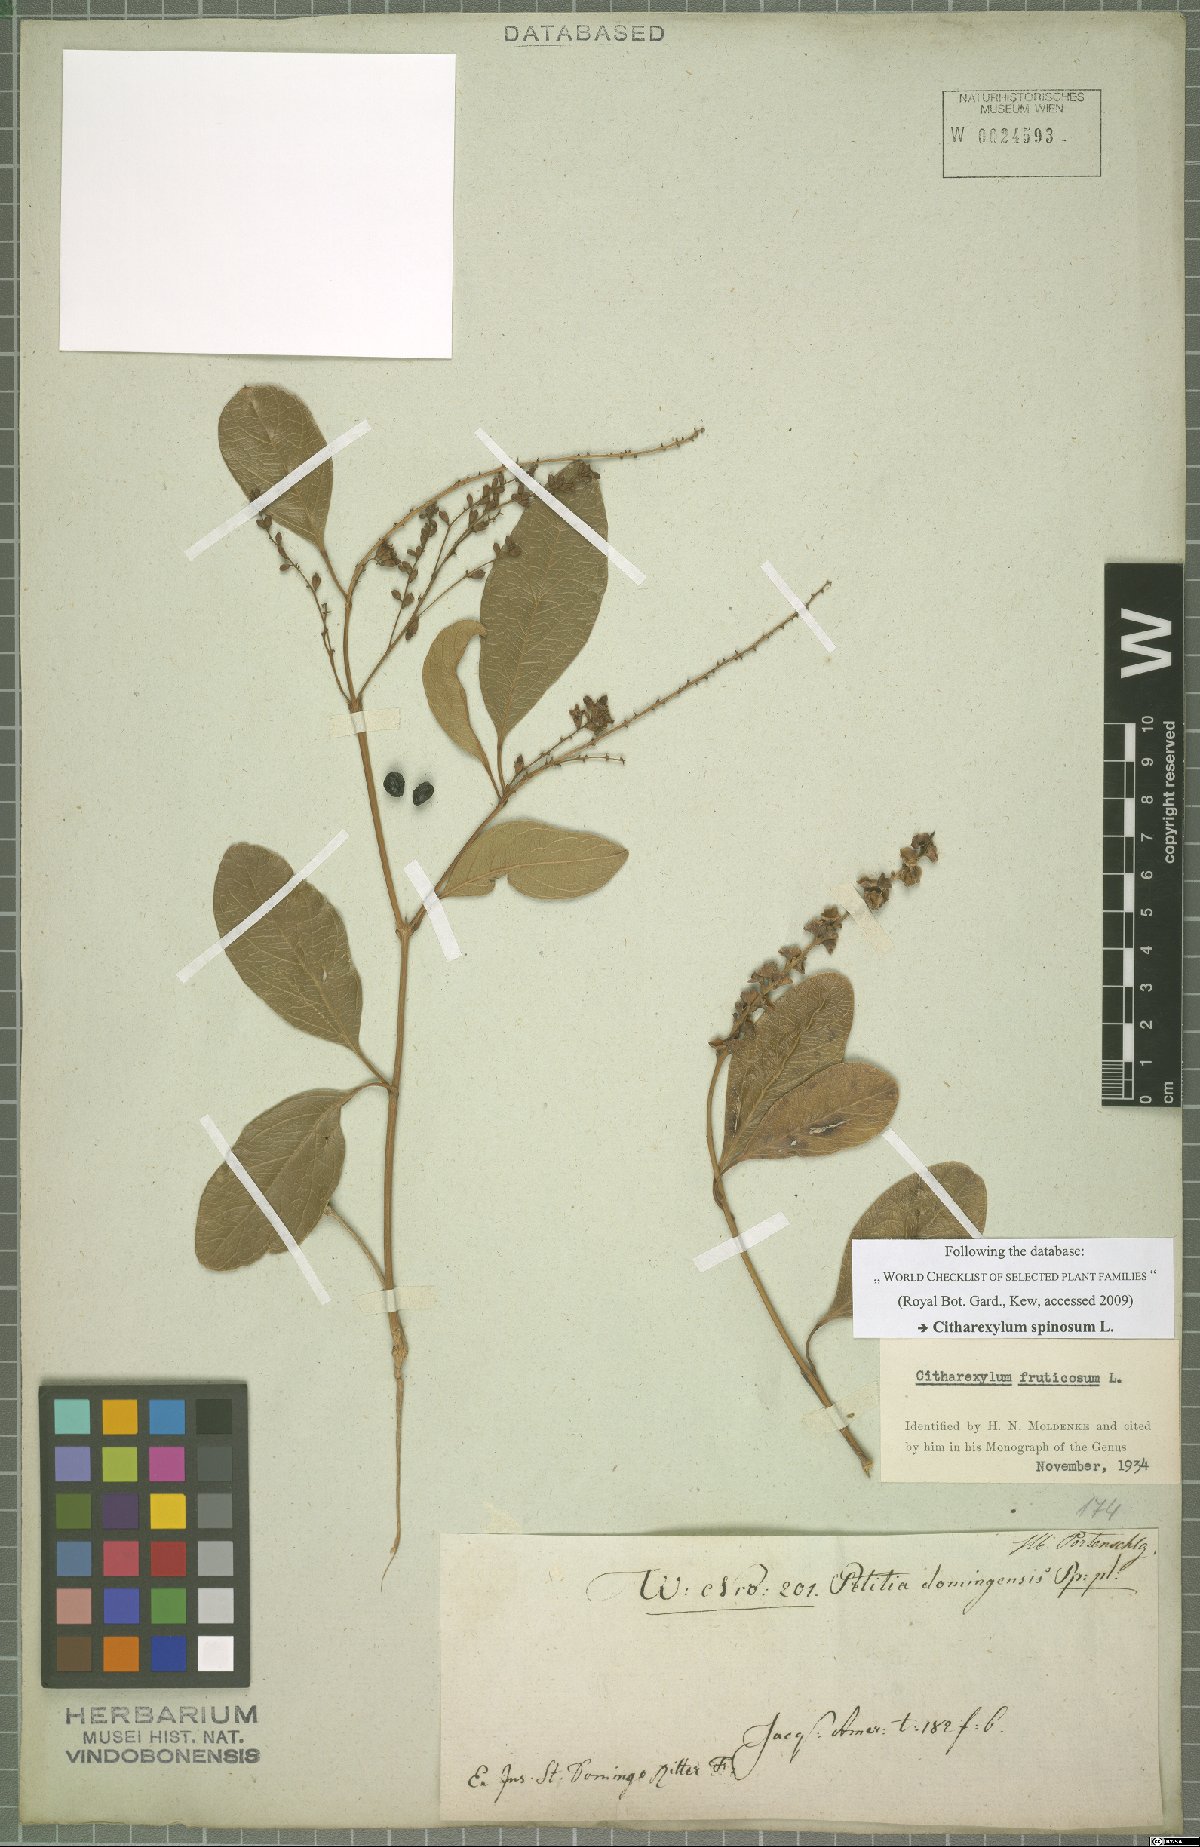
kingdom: Plantae
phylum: Tracheophyta
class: Magnoliopsida
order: Lamiales
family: Verbenaceae
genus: Citharexylum
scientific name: Citharexylum spinosum
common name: Fiddlewood
